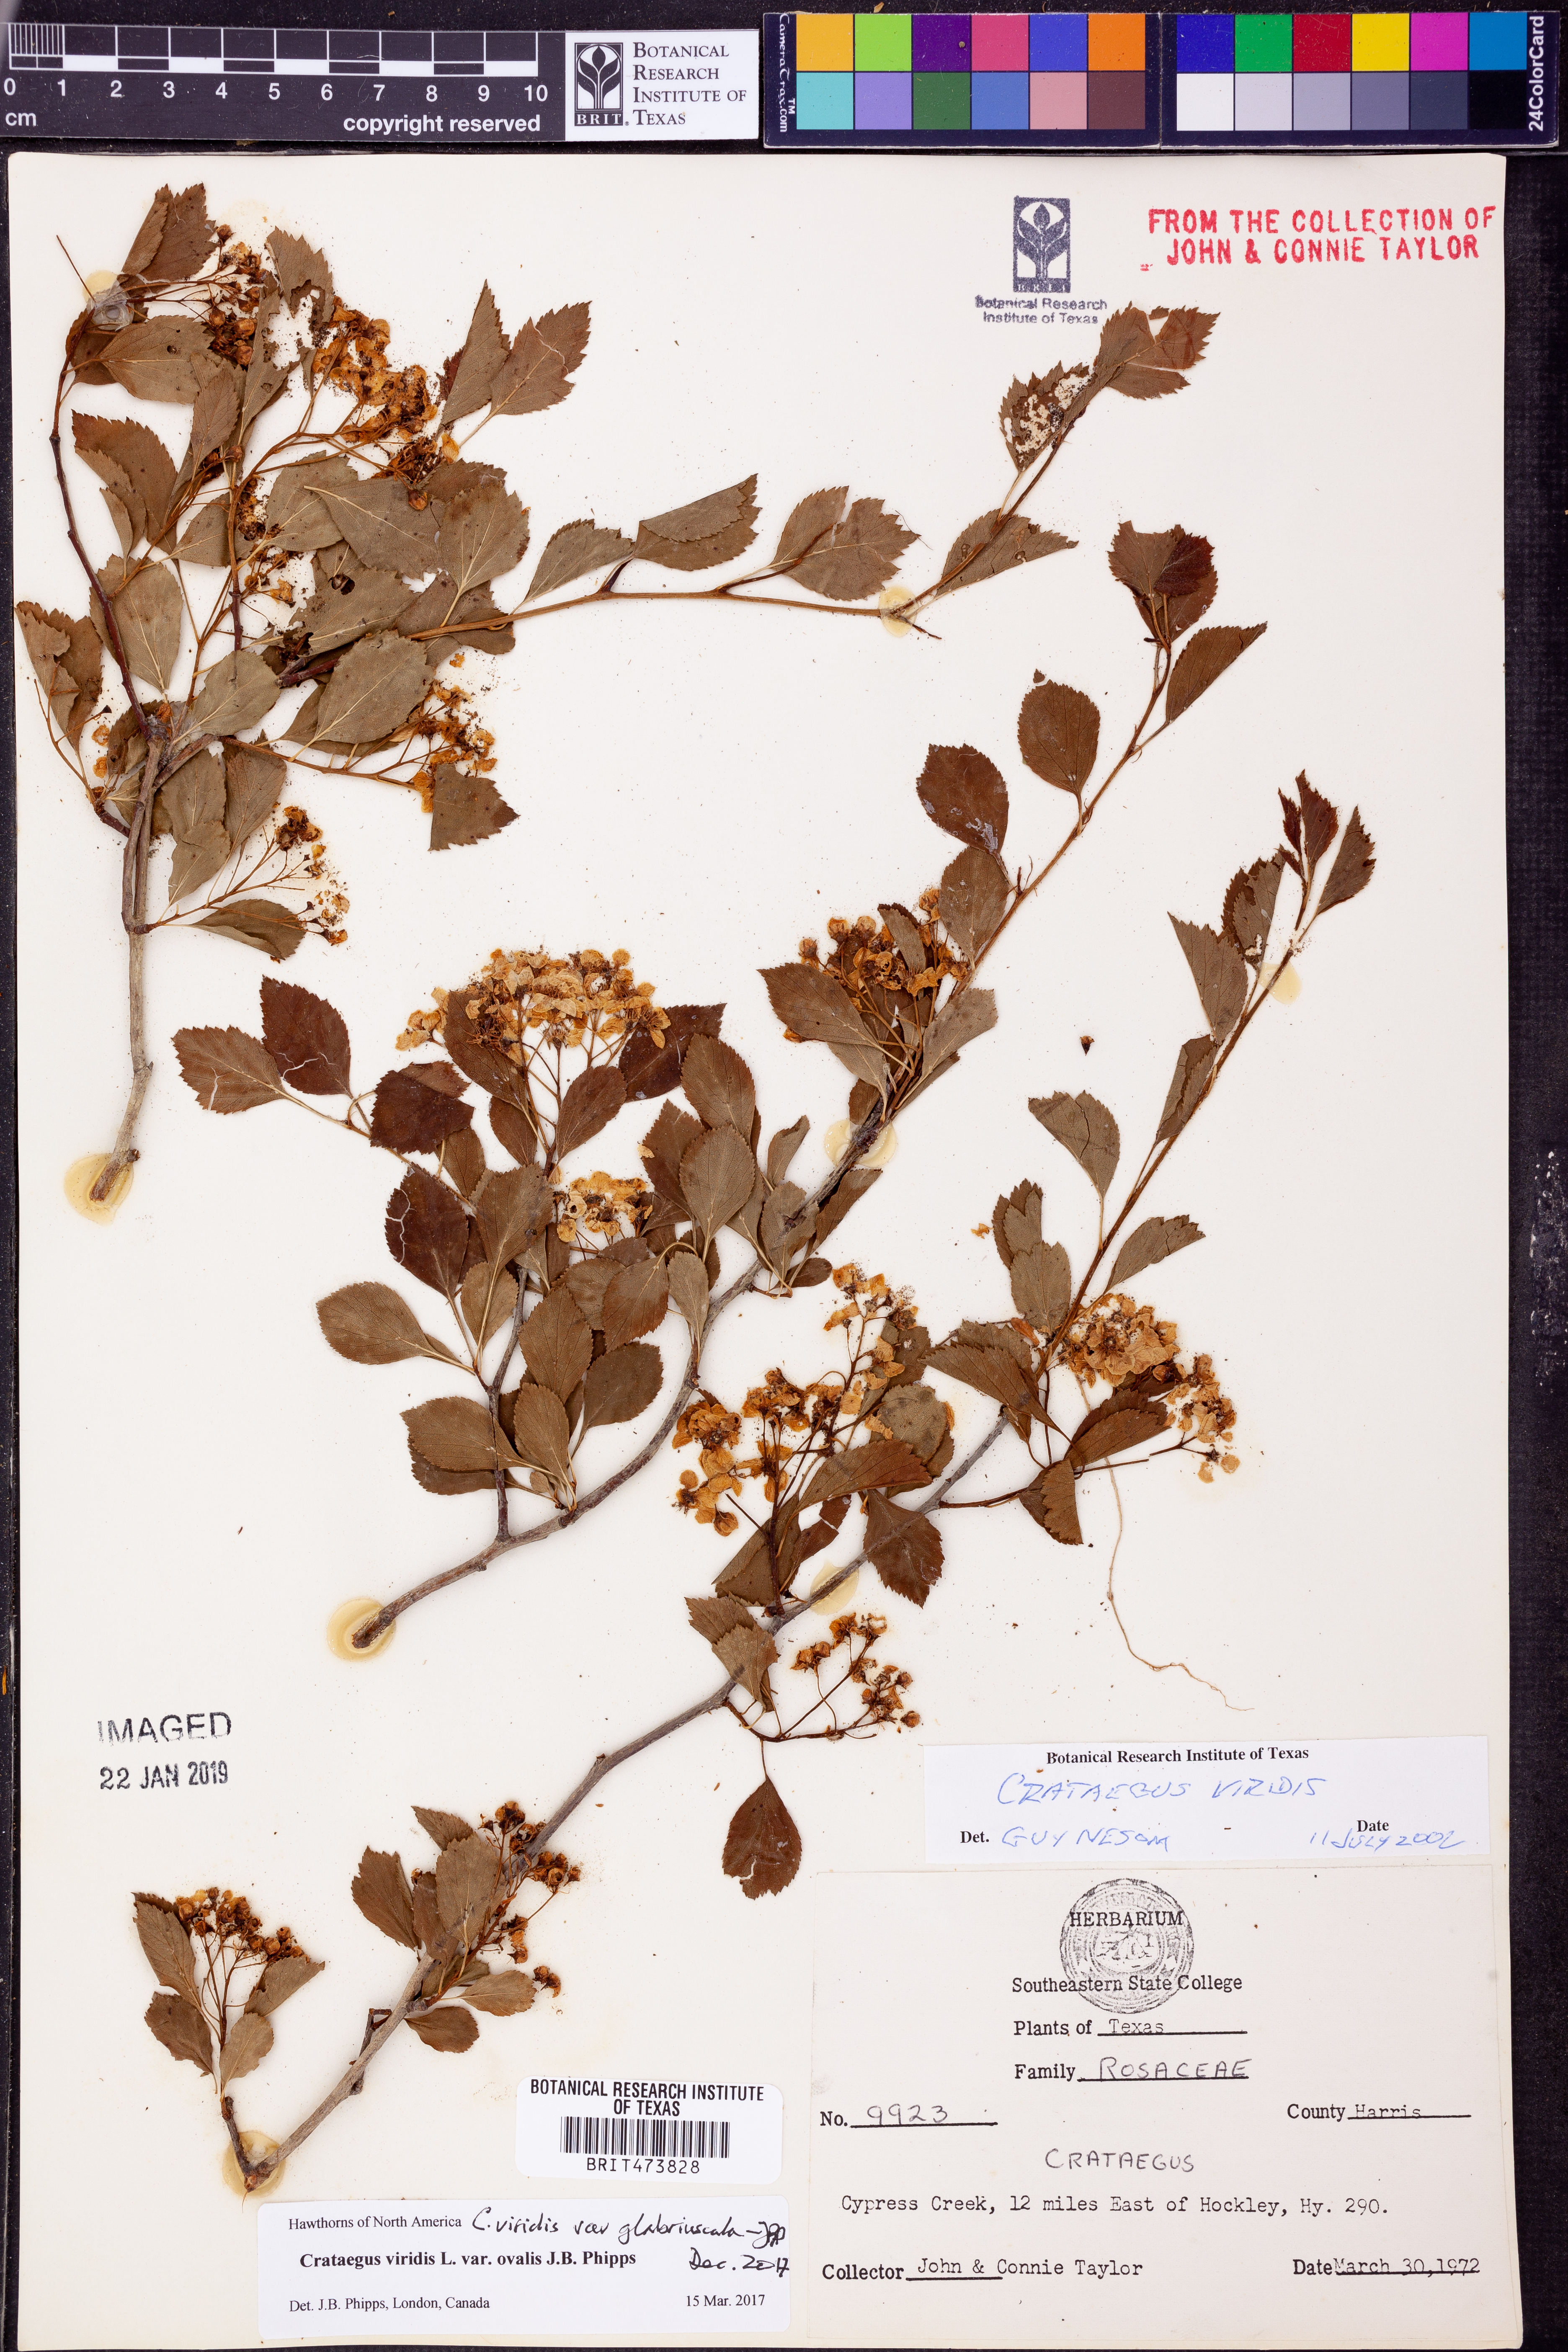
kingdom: Plantae
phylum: Tracheophyta
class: Magnoliopsida
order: Rosales
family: Rosaceae
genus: Crataegus
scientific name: Crataegus viridis
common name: Southernthorn
